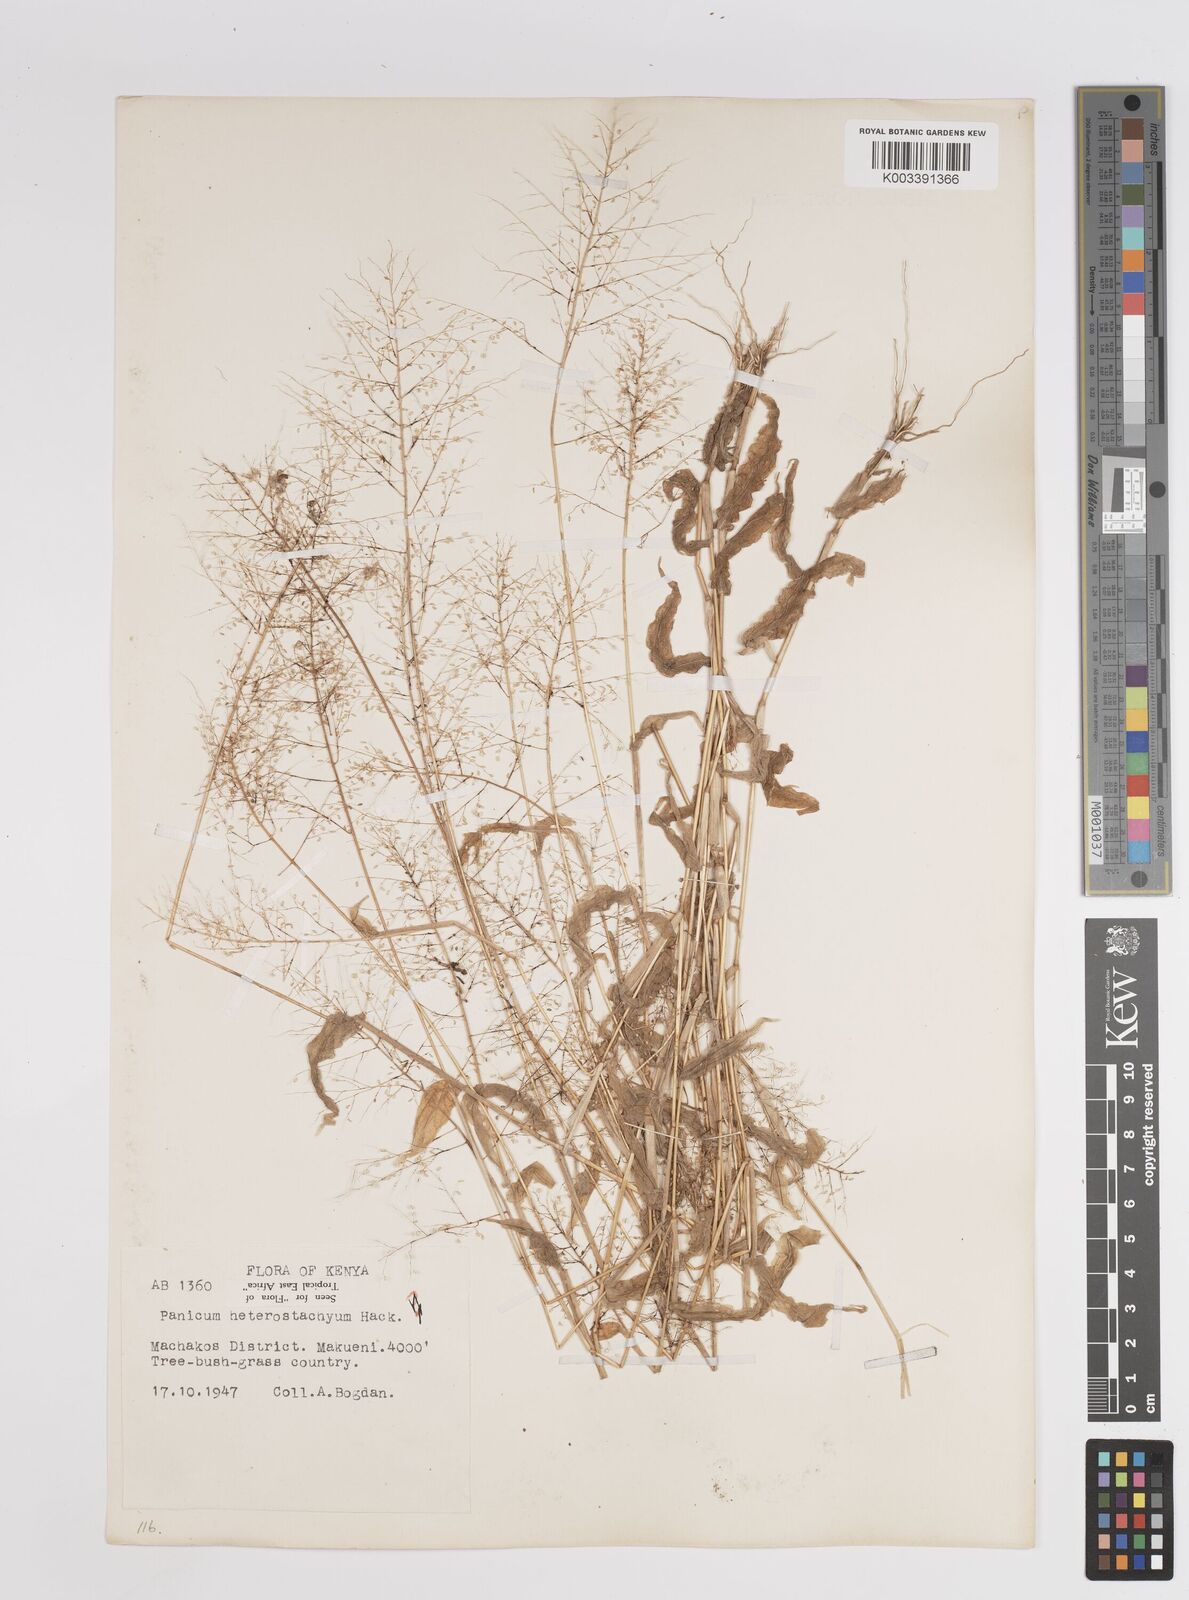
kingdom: Plantae
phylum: Tracheophyta
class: Liliopsida
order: Poales
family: Poaceae
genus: Panicum
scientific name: Panicum hirtum
